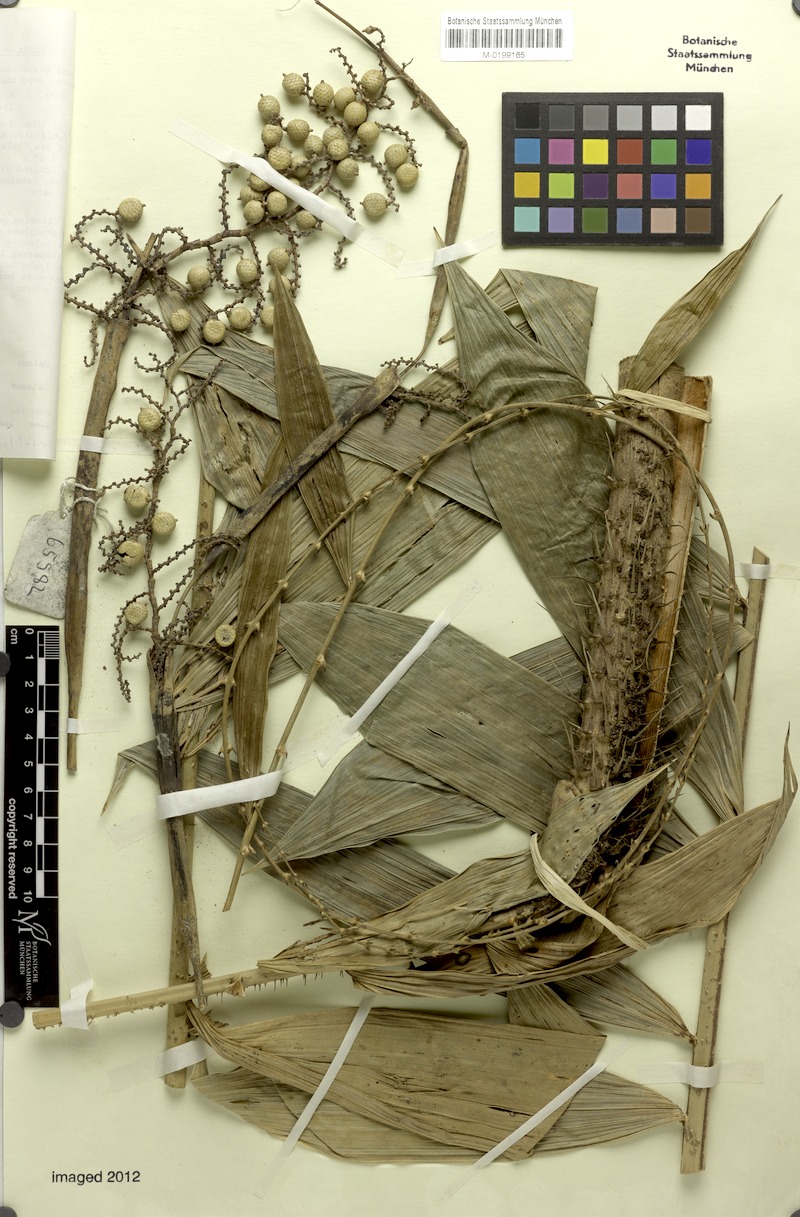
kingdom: Plantae
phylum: Tracheophyta
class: Liliopsida
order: Arecales
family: Arecaceae
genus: Calamus
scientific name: Calamus vitiensis
